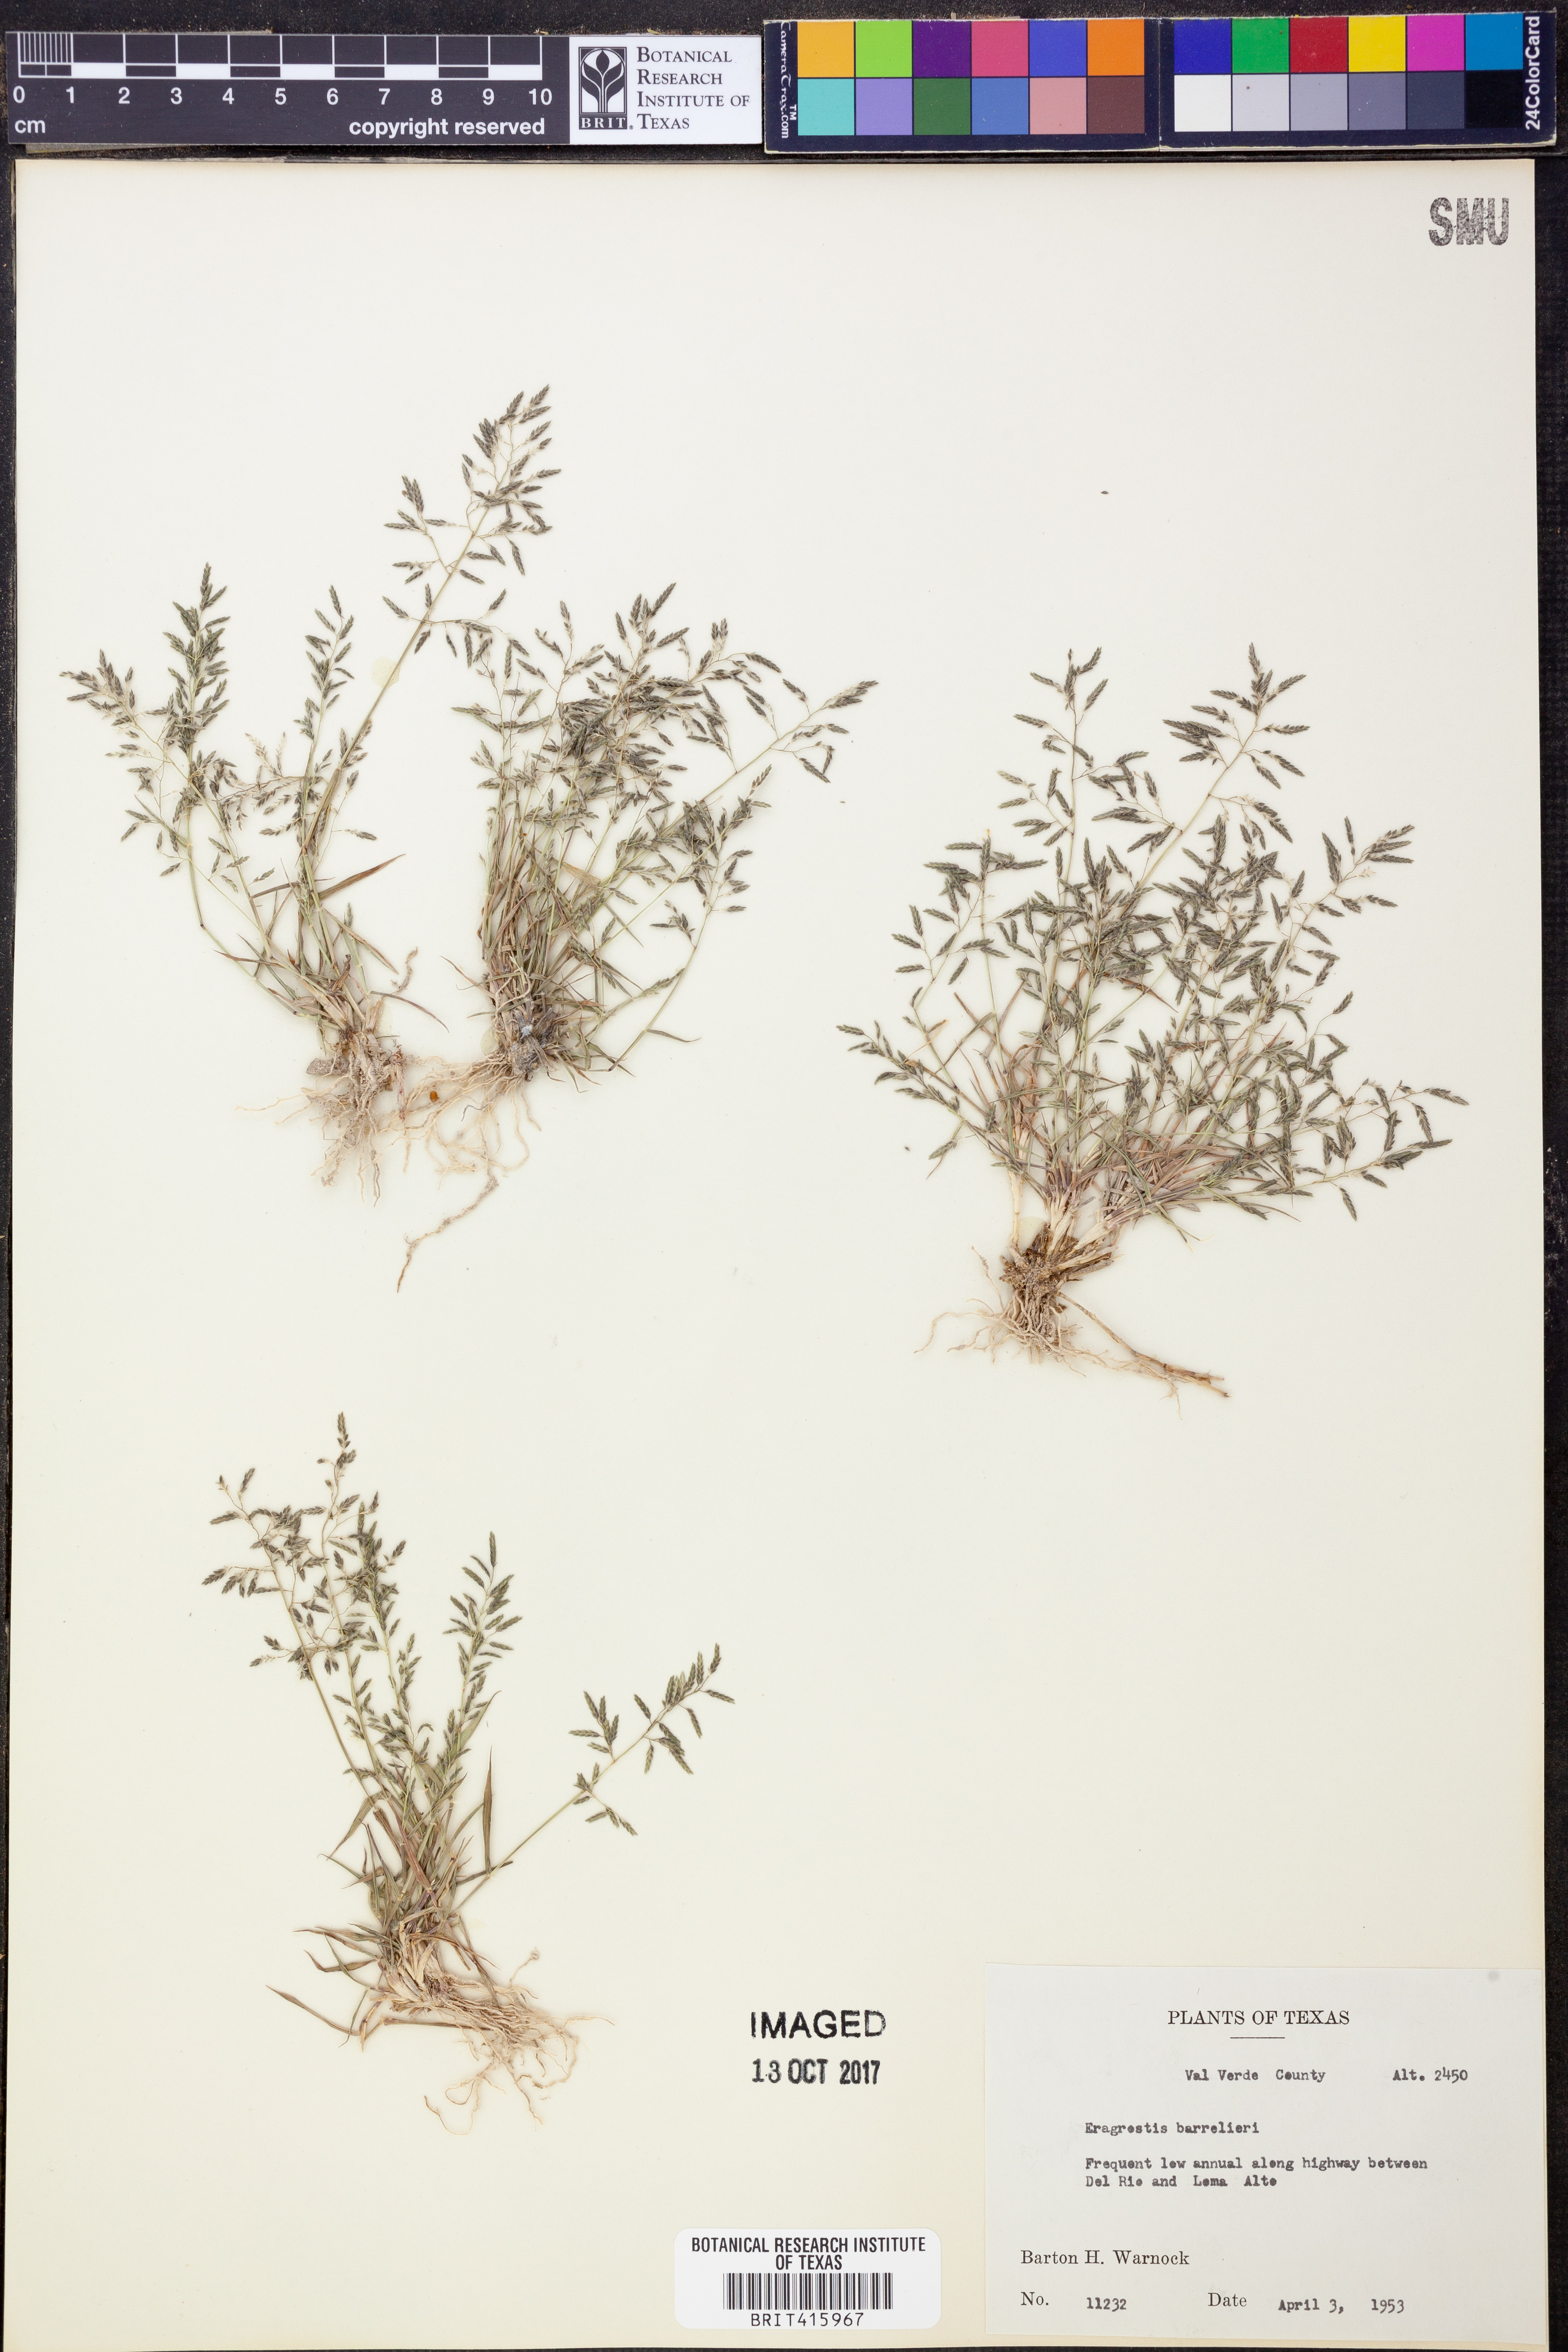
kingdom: Plantae
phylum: Tracheophyta
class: Liliopsida
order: Poales
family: Poaceae
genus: Eragrostis
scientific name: Eragrostis barrelieri
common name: Mediterranean lovegrass
